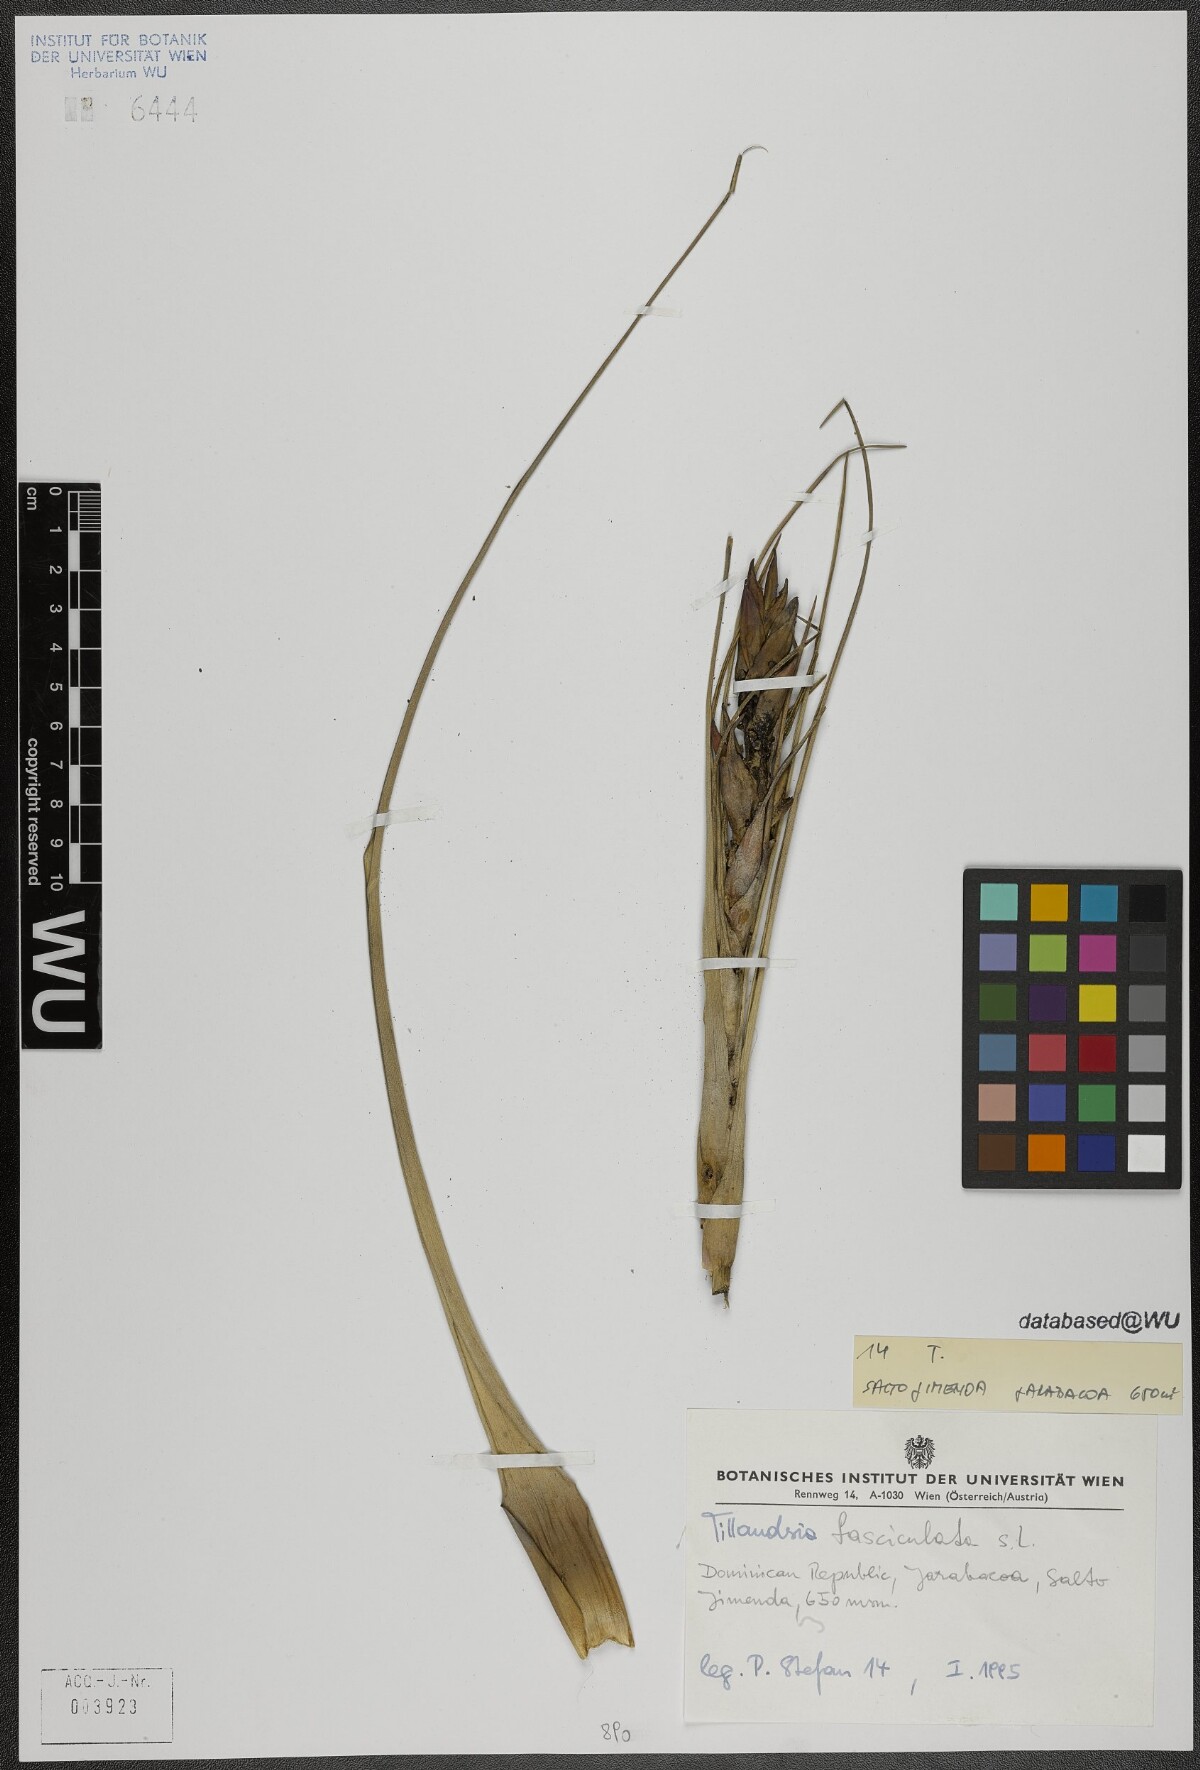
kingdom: Plantae
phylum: Tracheophyta
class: Liliopsida
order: Poales
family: Bromeliaceae
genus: Tillandsia
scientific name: Tillandsia fasciculata
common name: Giant airplant
